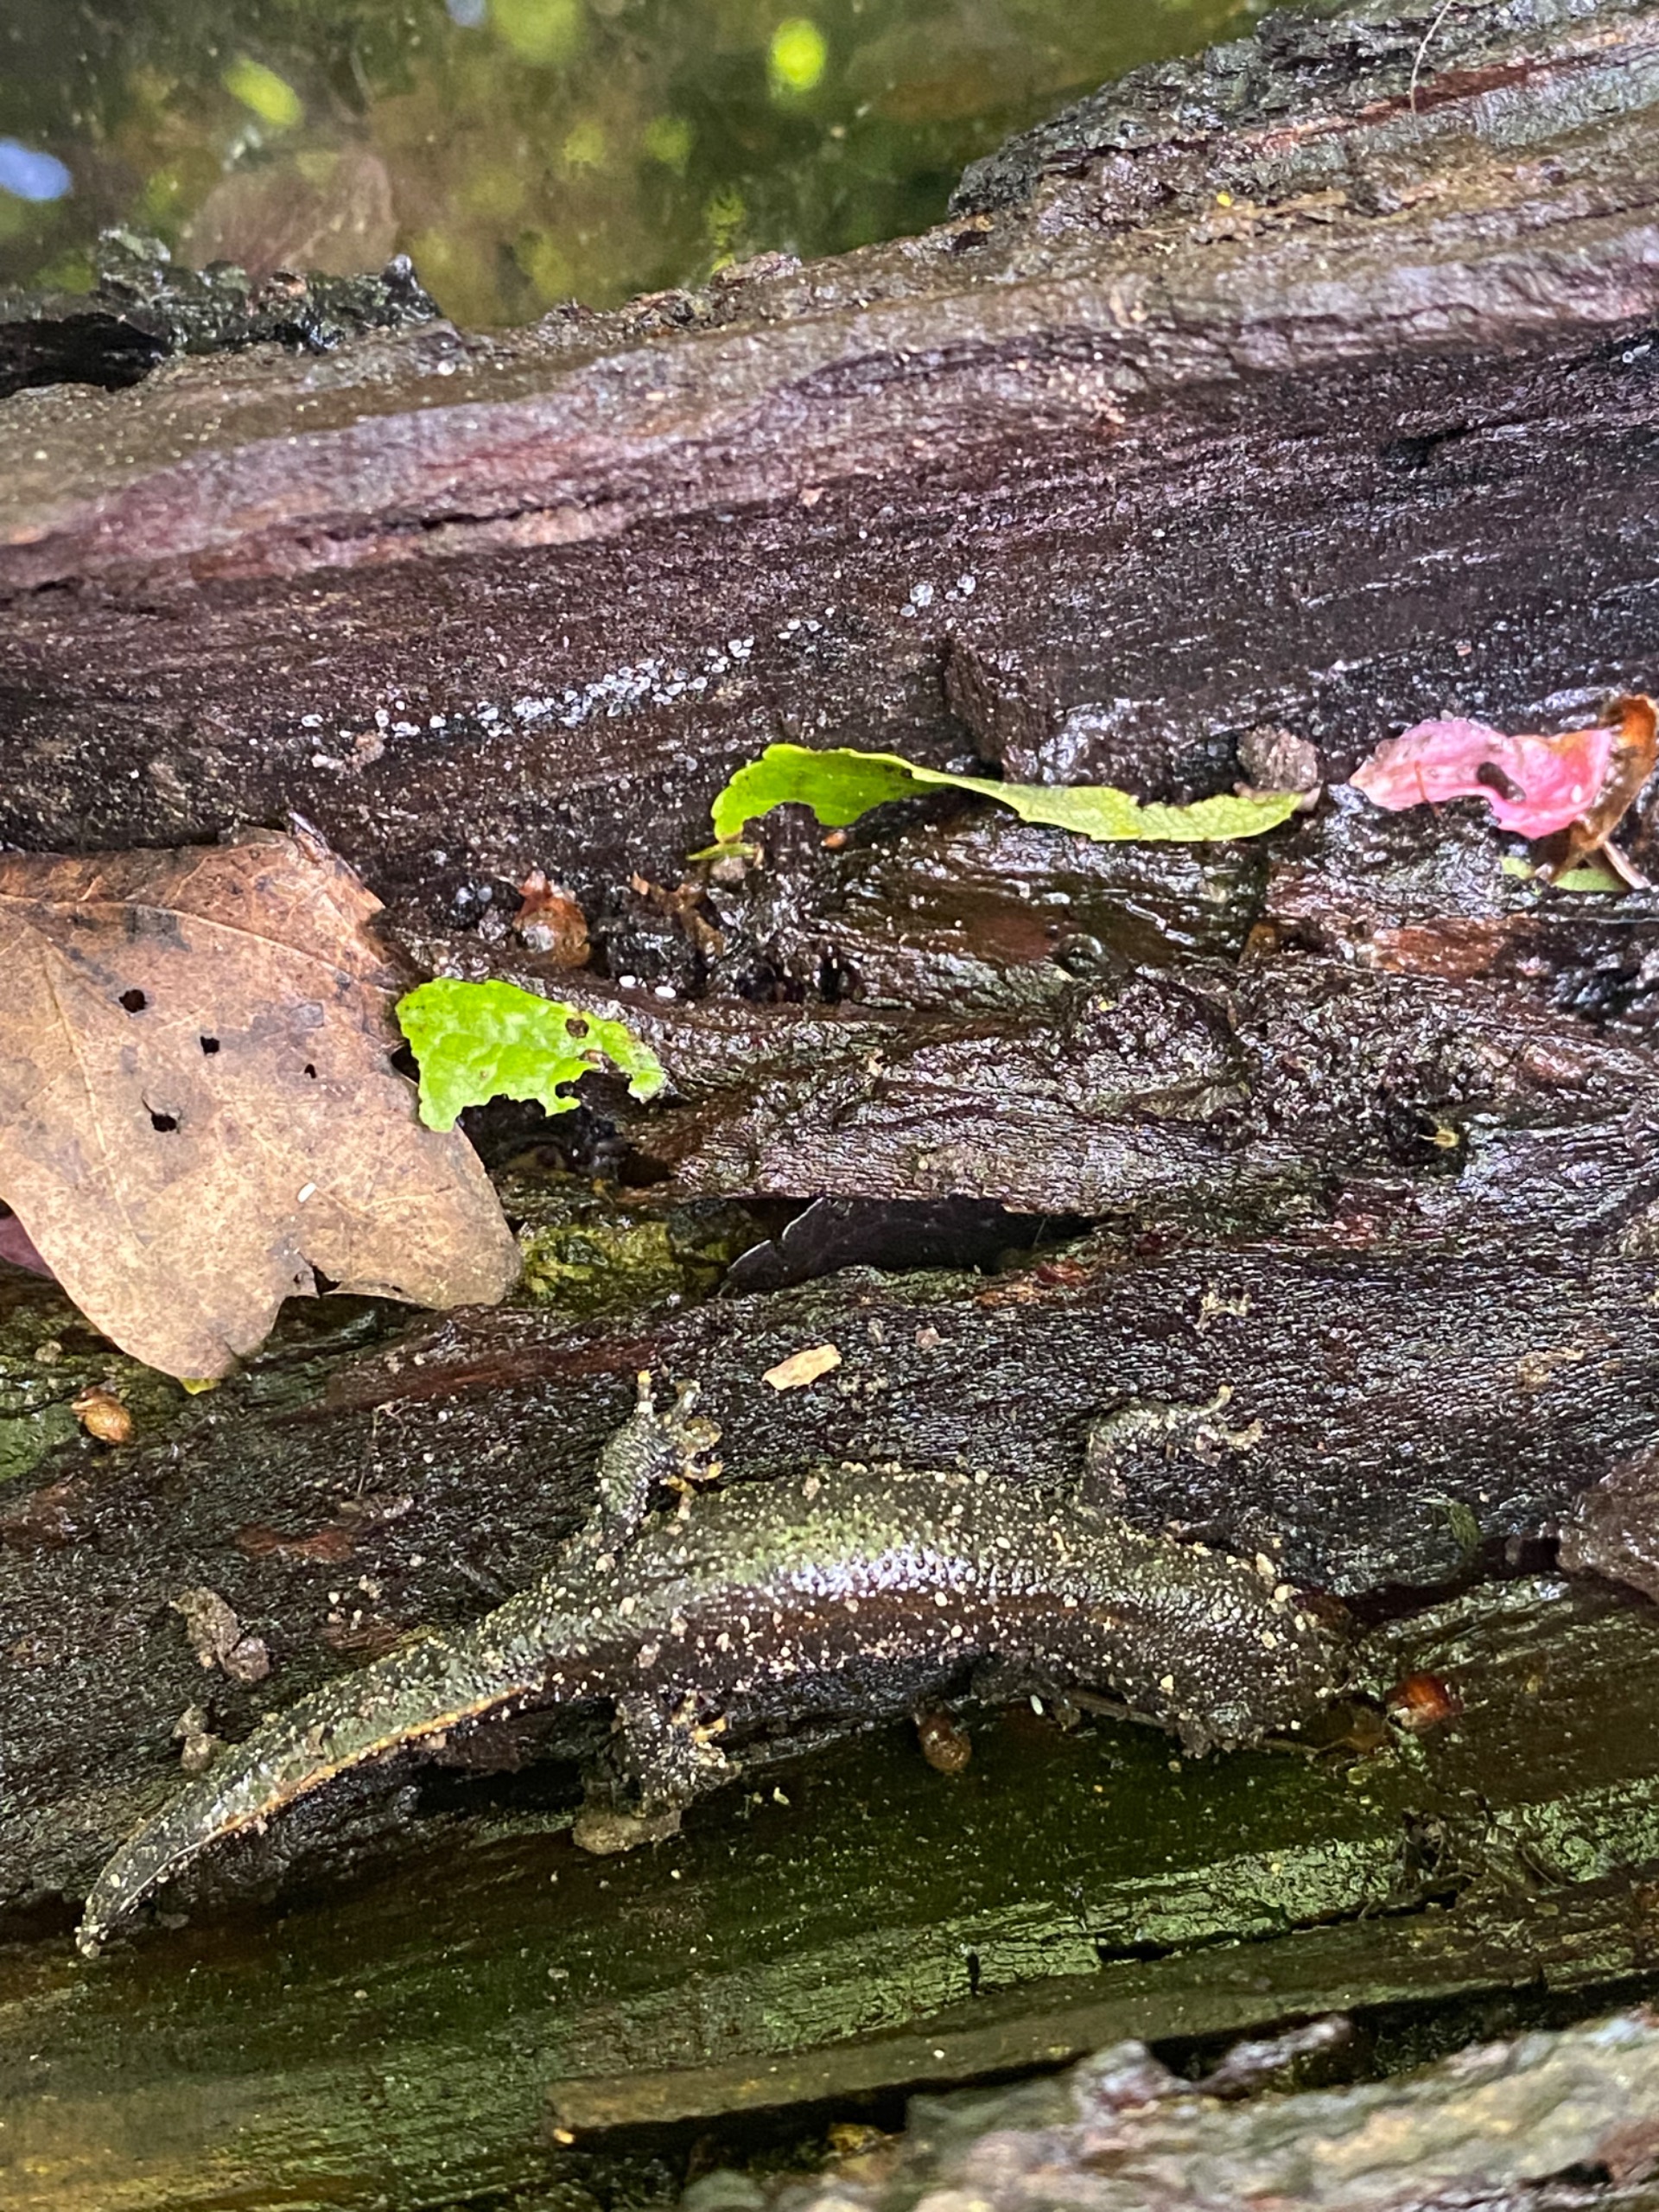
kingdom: Animalia
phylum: Chordata
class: Amphibia
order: Caudata
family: Salamandridae
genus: Triturus
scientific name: Triturus cristatus
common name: Stor vandsalamander
